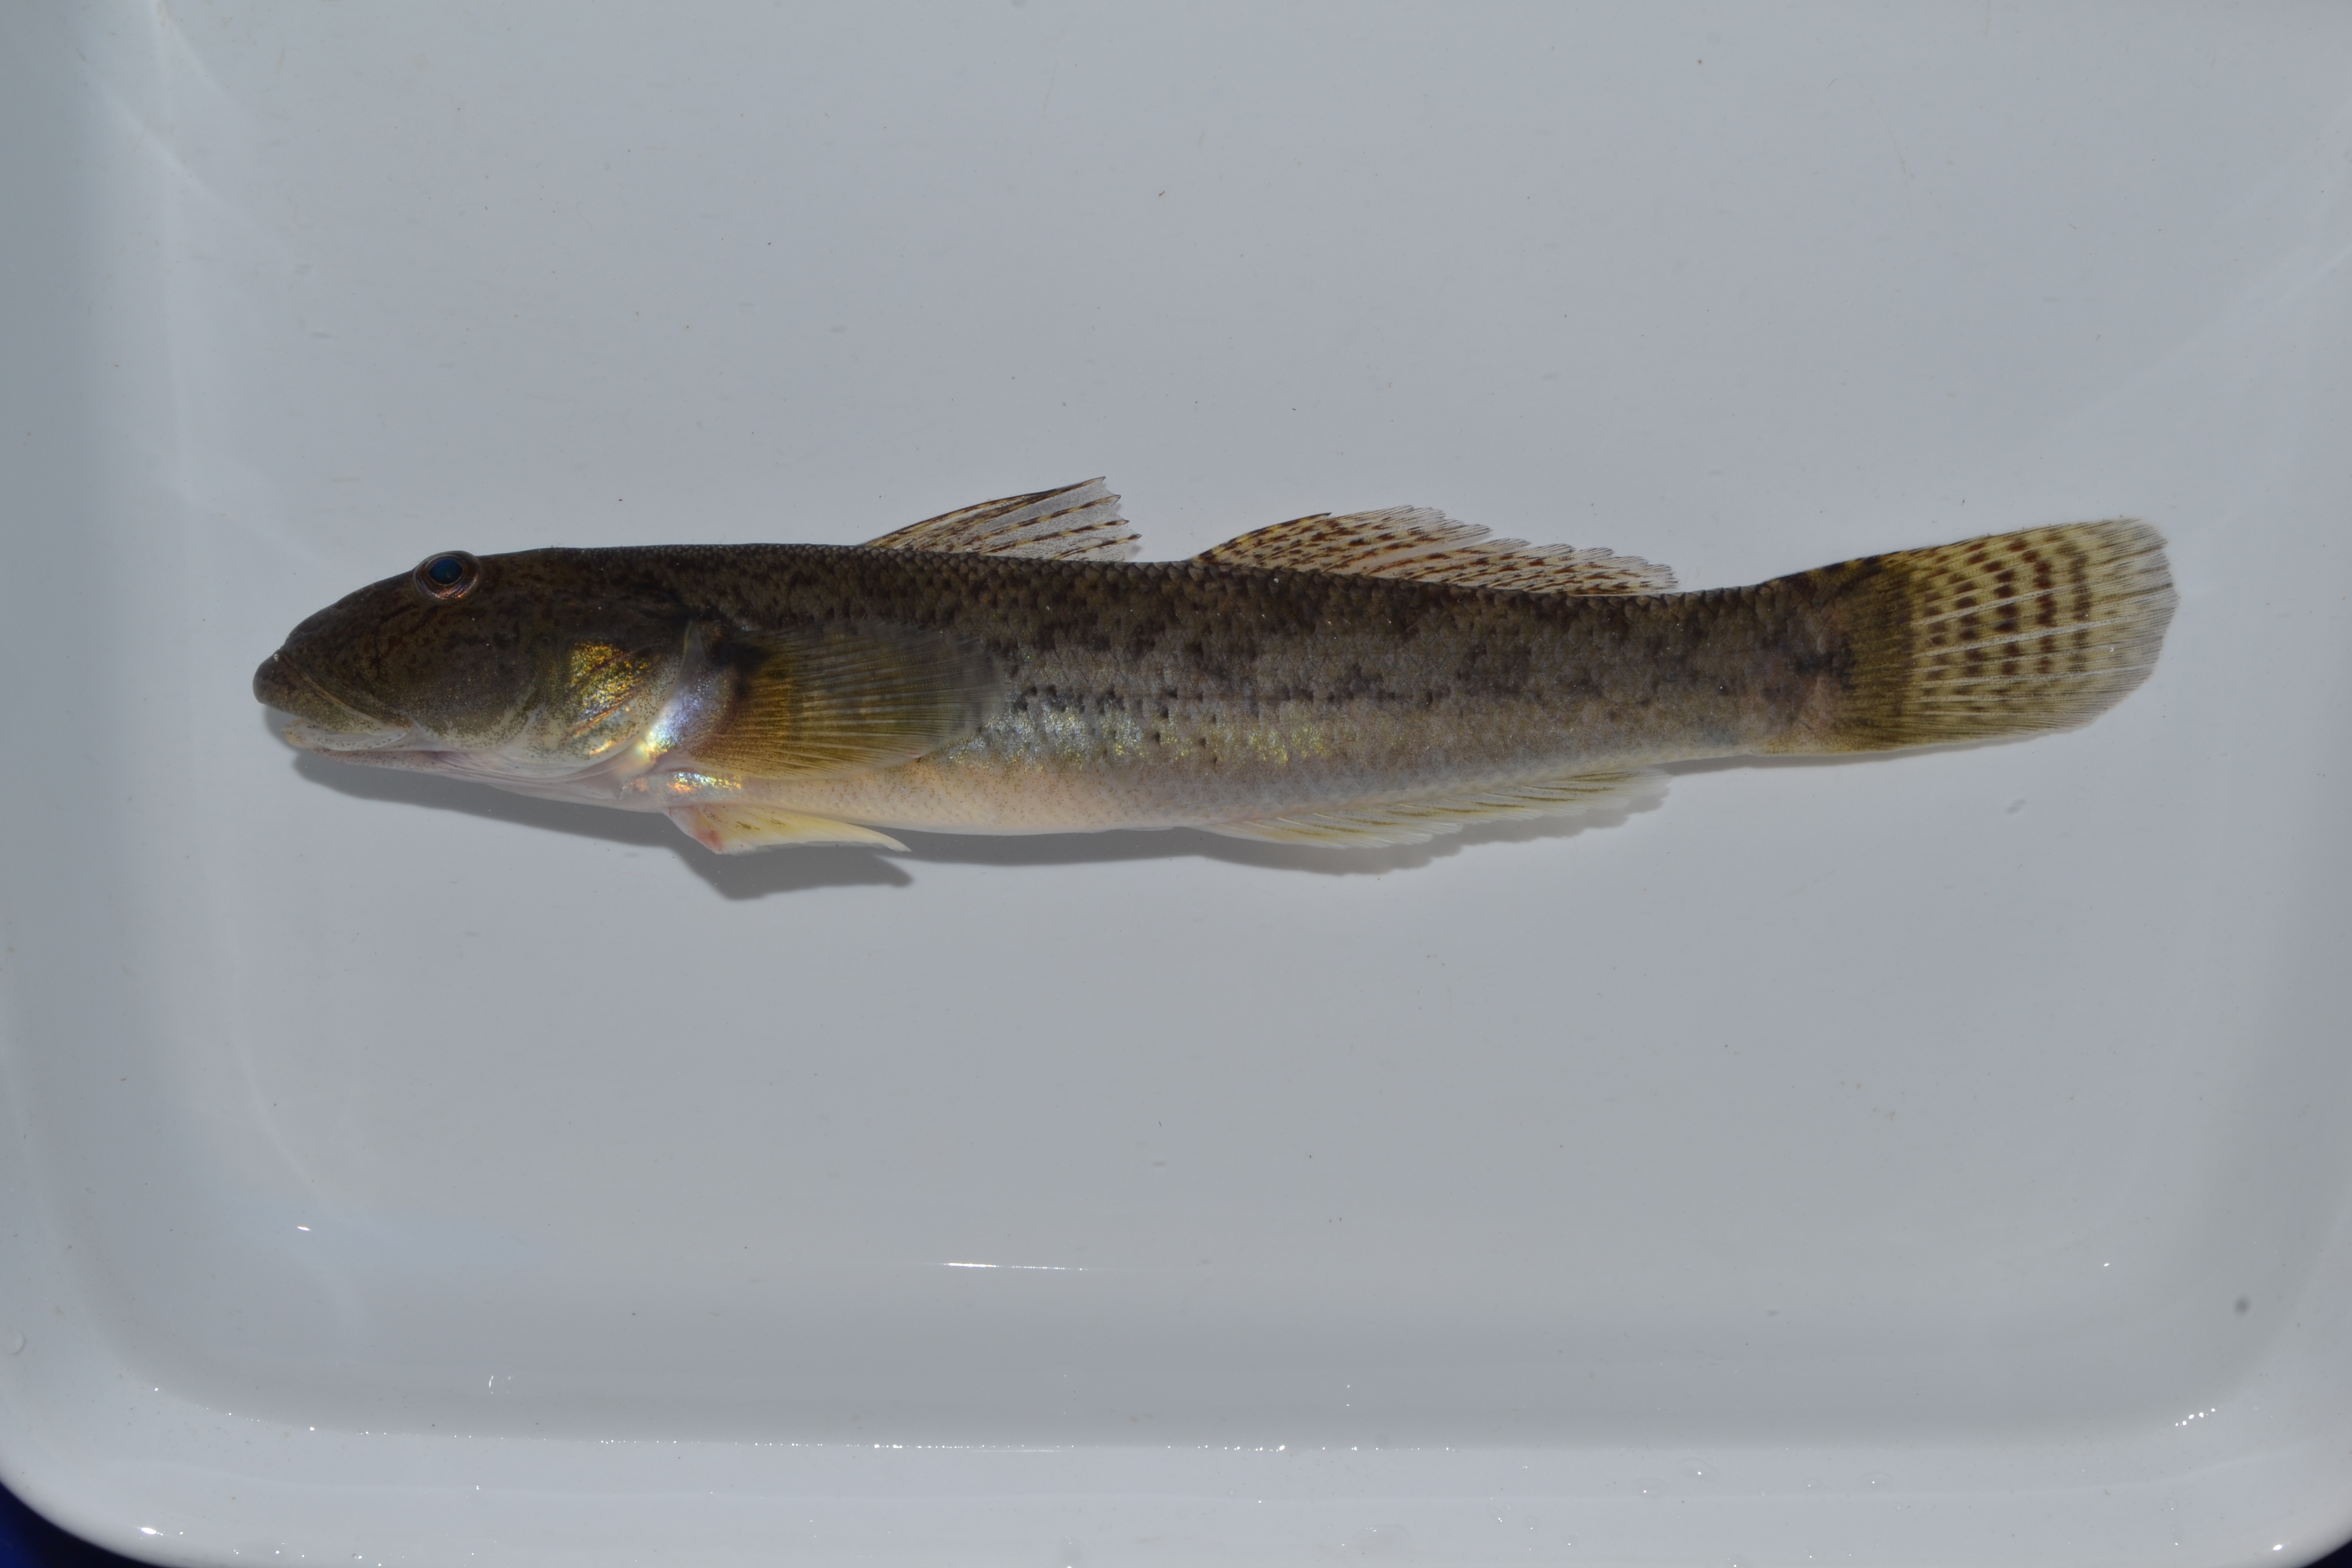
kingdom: Animalia
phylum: Chordata
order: Perciformes
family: Gobiidae
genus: Glossogobius
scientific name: Glossogobius giuris
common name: Tank goby
